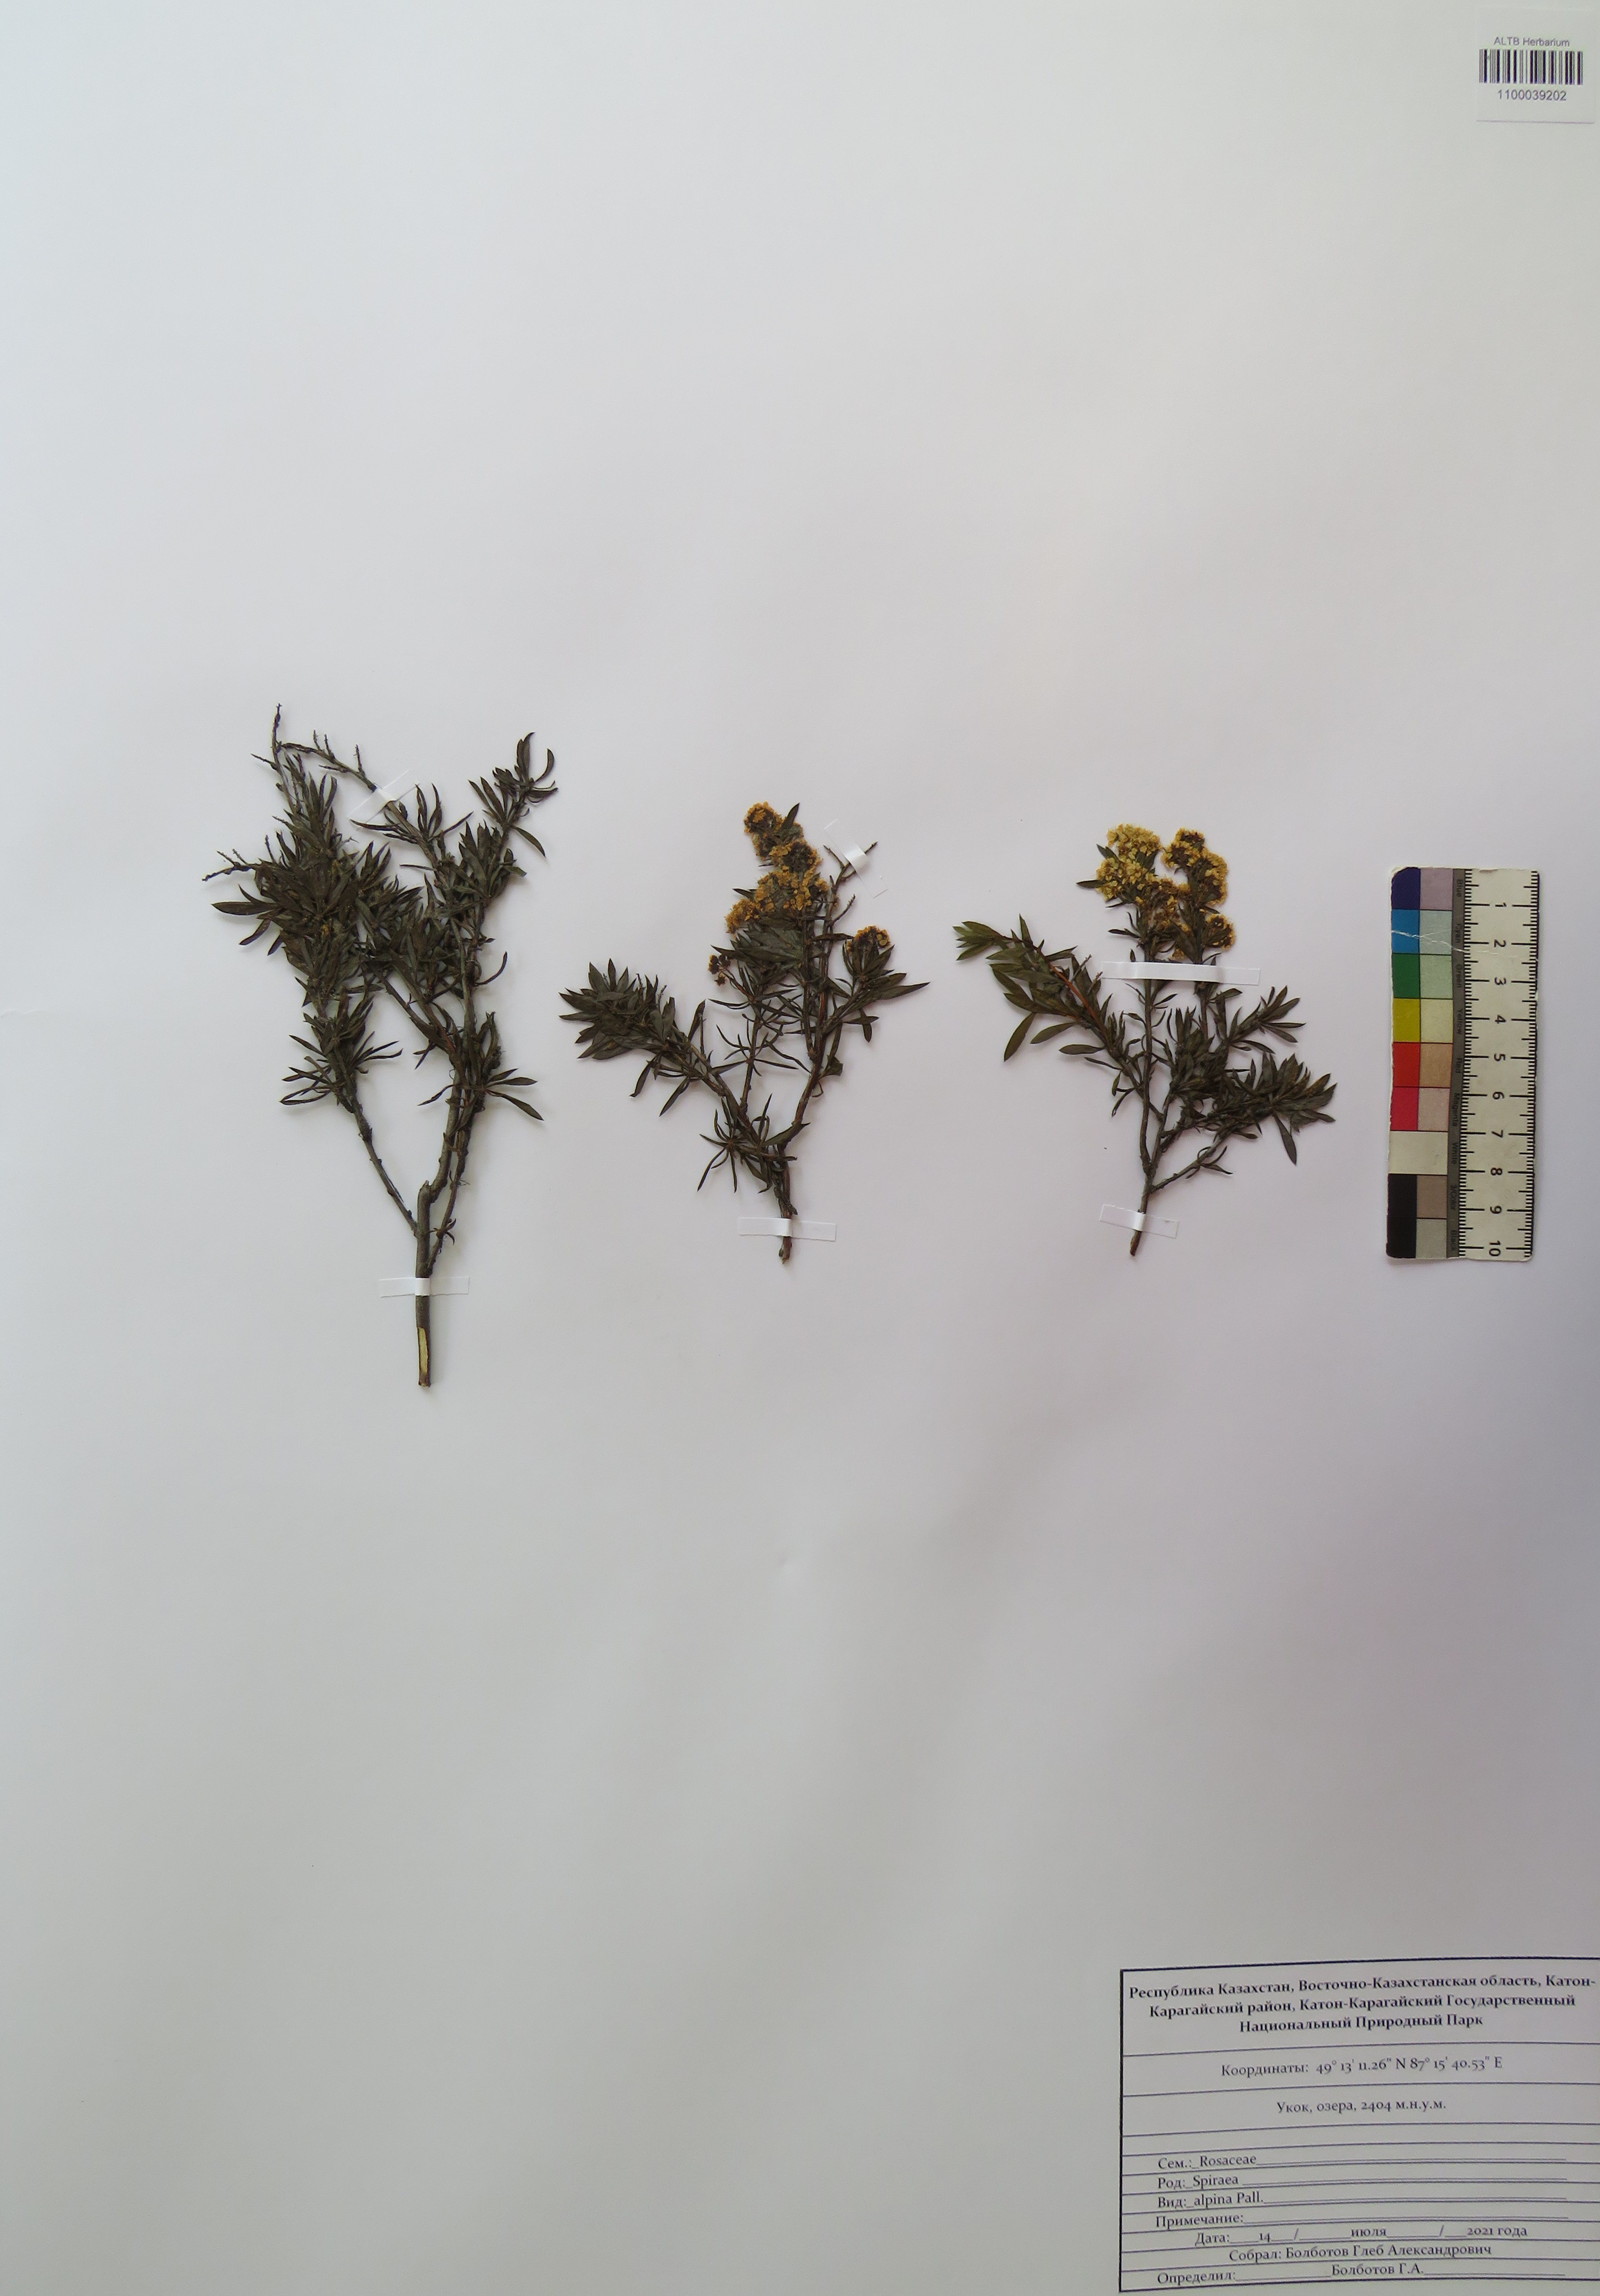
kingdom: Plantae
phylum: Tracheophyta
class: Magnoliopsida
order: Rosales
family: Rosaceae
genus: Spiraea
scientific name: Spiraea alpina
